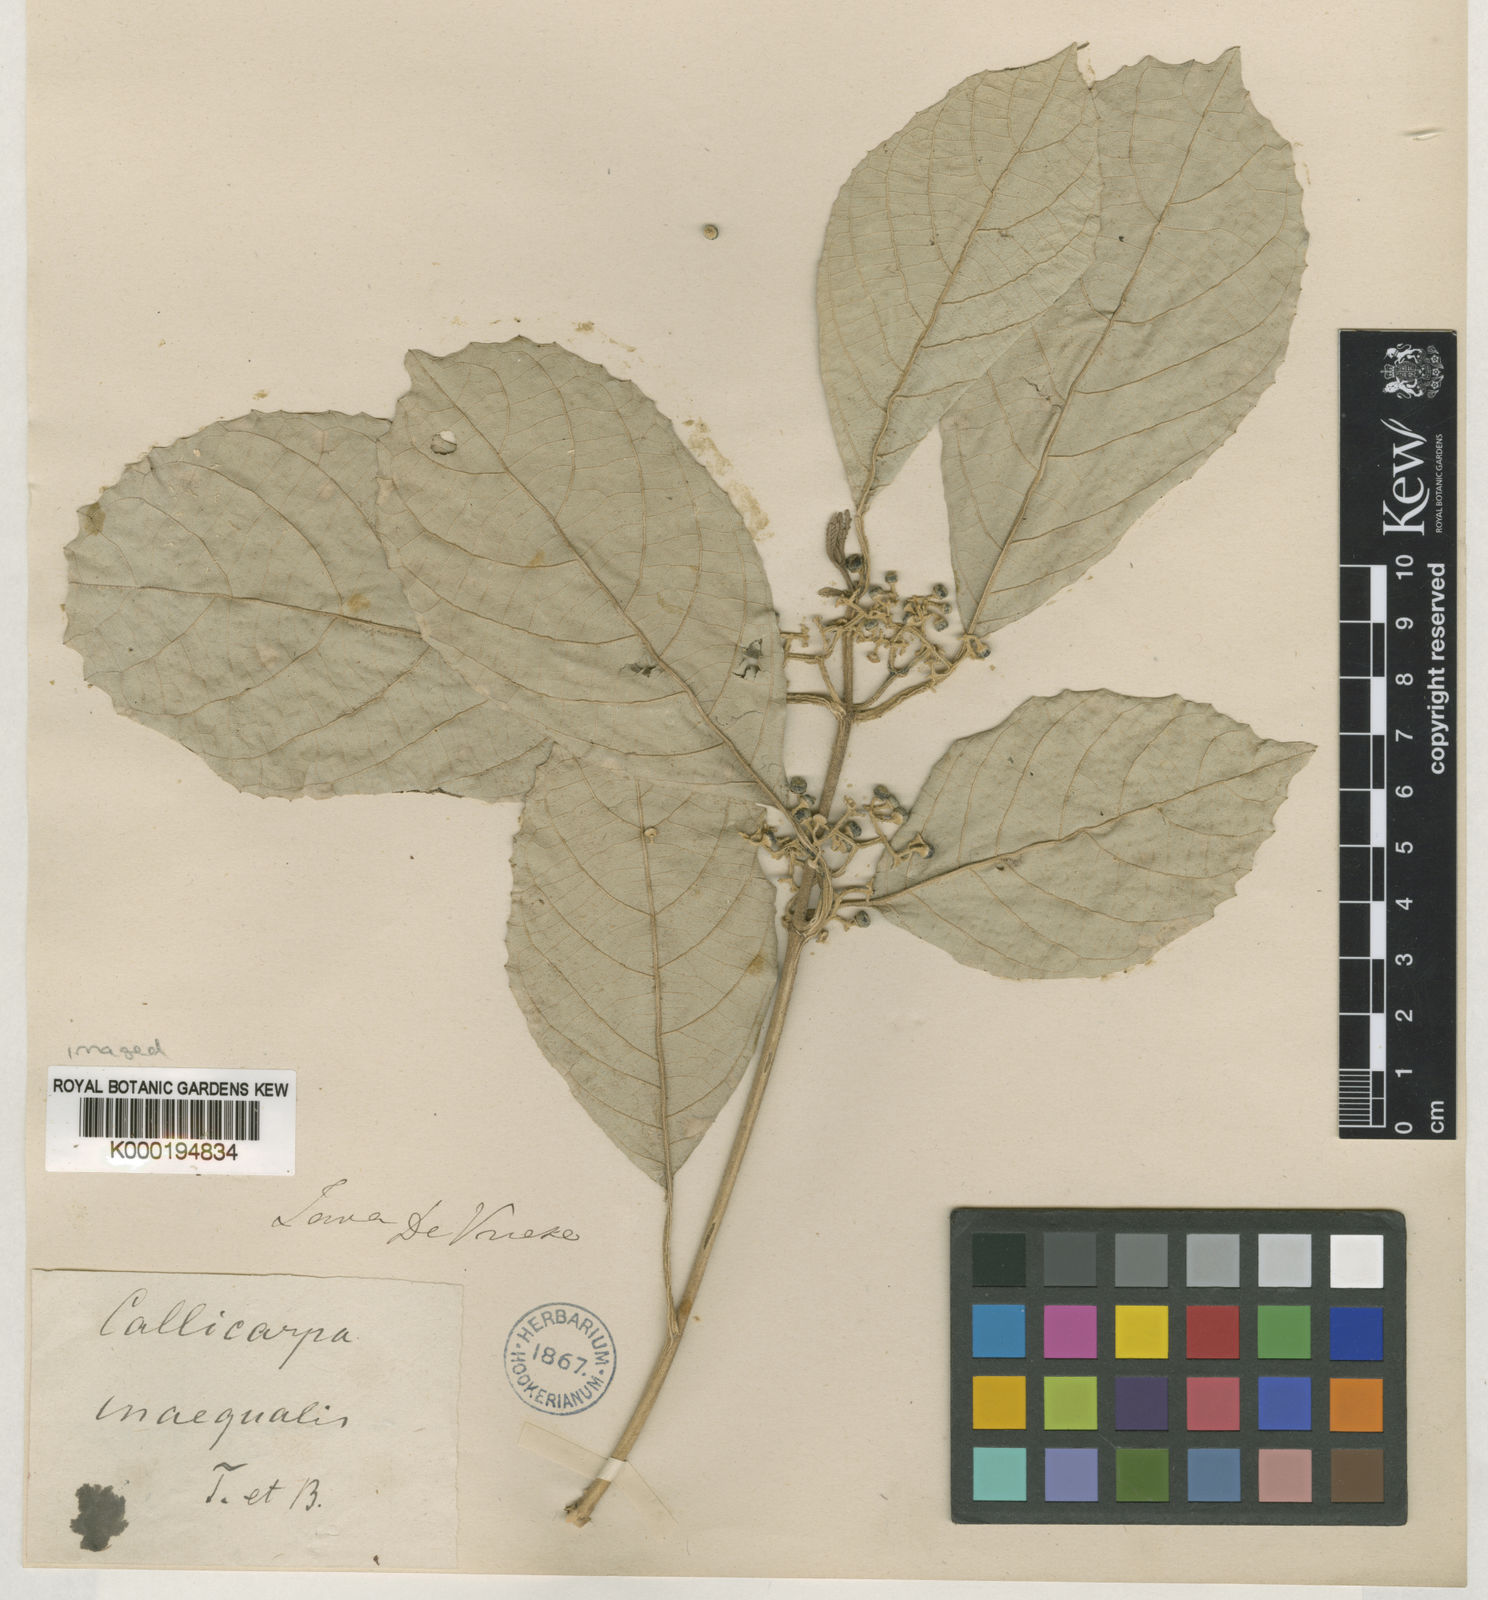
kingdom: Plantae
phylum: Tracheophyta
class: Magnoliopsida
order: Lamiales
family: Lamiaceae
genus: Callicarpa
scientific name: Callicarpa furfuracea
